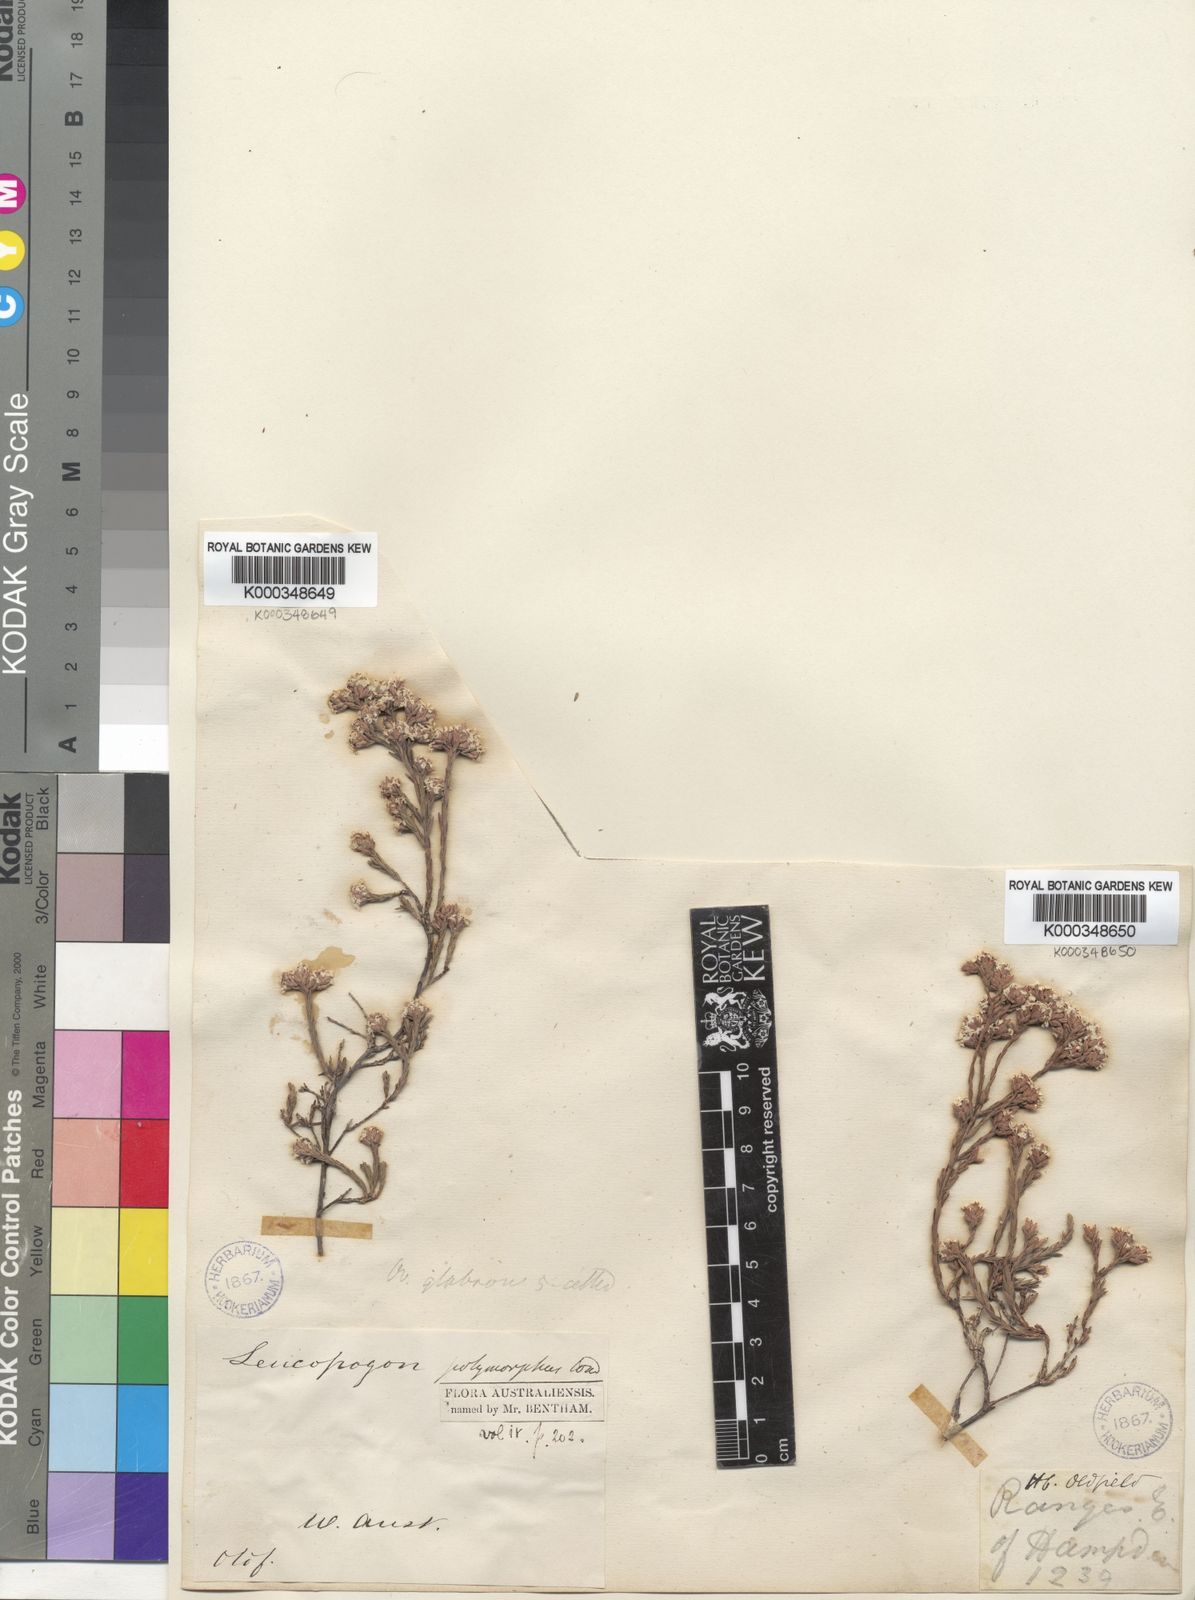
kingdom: Plantae
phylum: Tracheophyta
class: Magnoliopsida
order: Ericales
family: Ericaceae
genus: Leucopogon
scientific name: Leucopogon polymorphus
